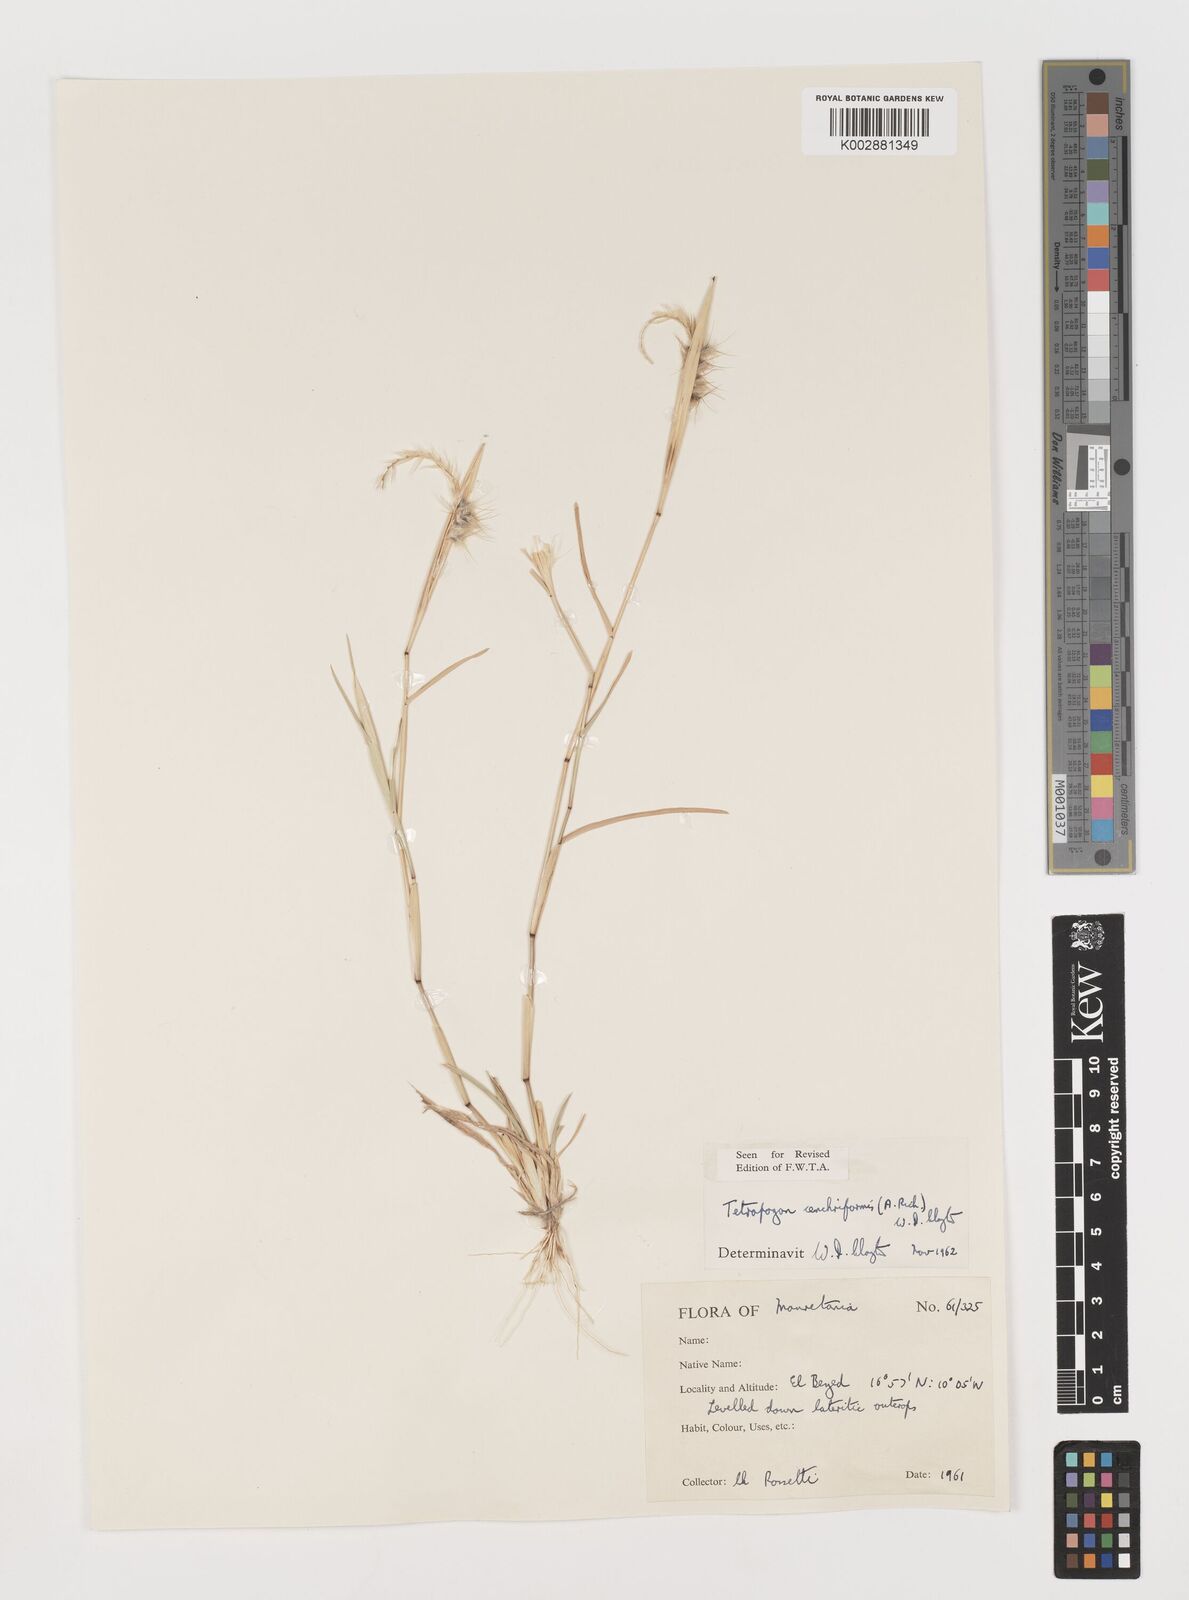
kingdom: Plantae
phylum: Tracheophyta
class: Liliopsida
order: Poales
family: Poaceae
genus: Tetrapogon
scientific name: Tetrapogon cenchriformis
